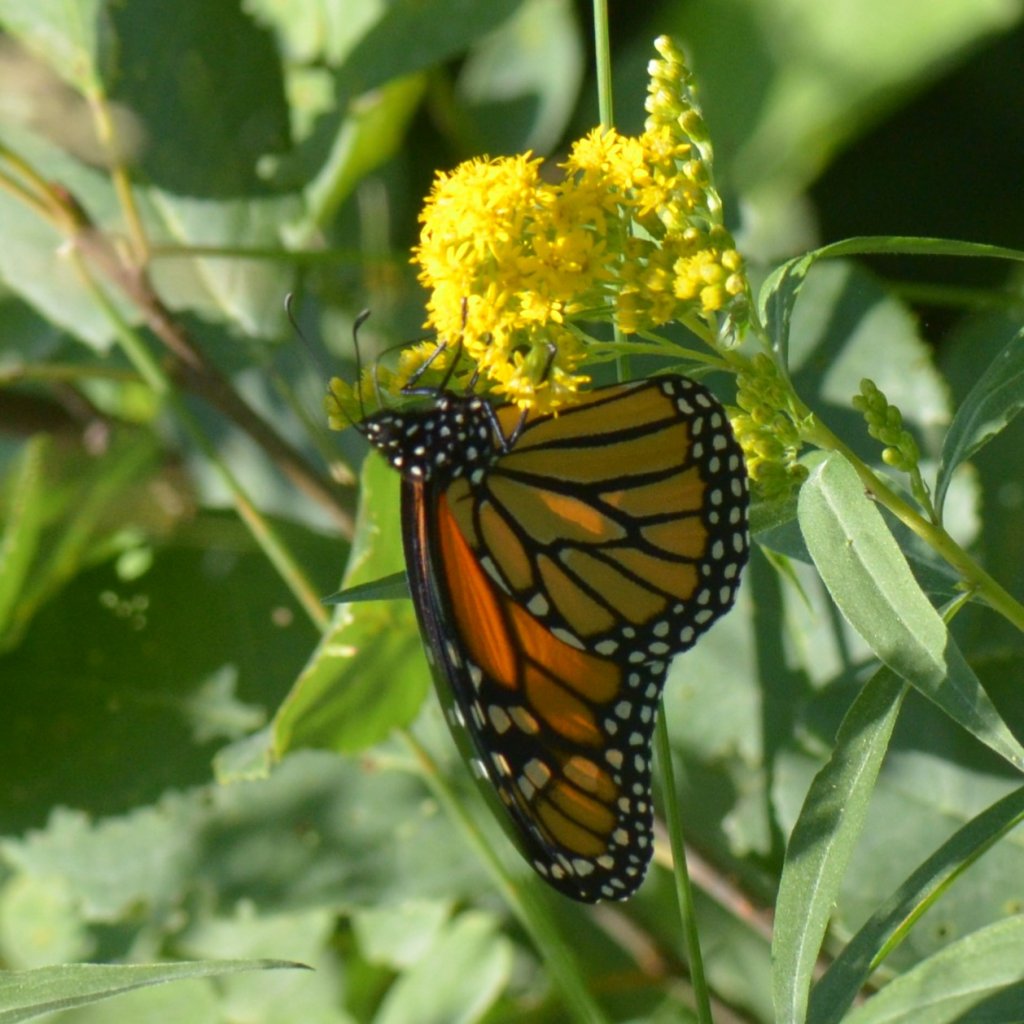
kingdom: Animalia
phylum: Arthropoda
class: Insecta
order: Lepidoptera
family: Nymphalidae
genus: Danaus
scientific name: Danaus plexippus
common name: Monarch
